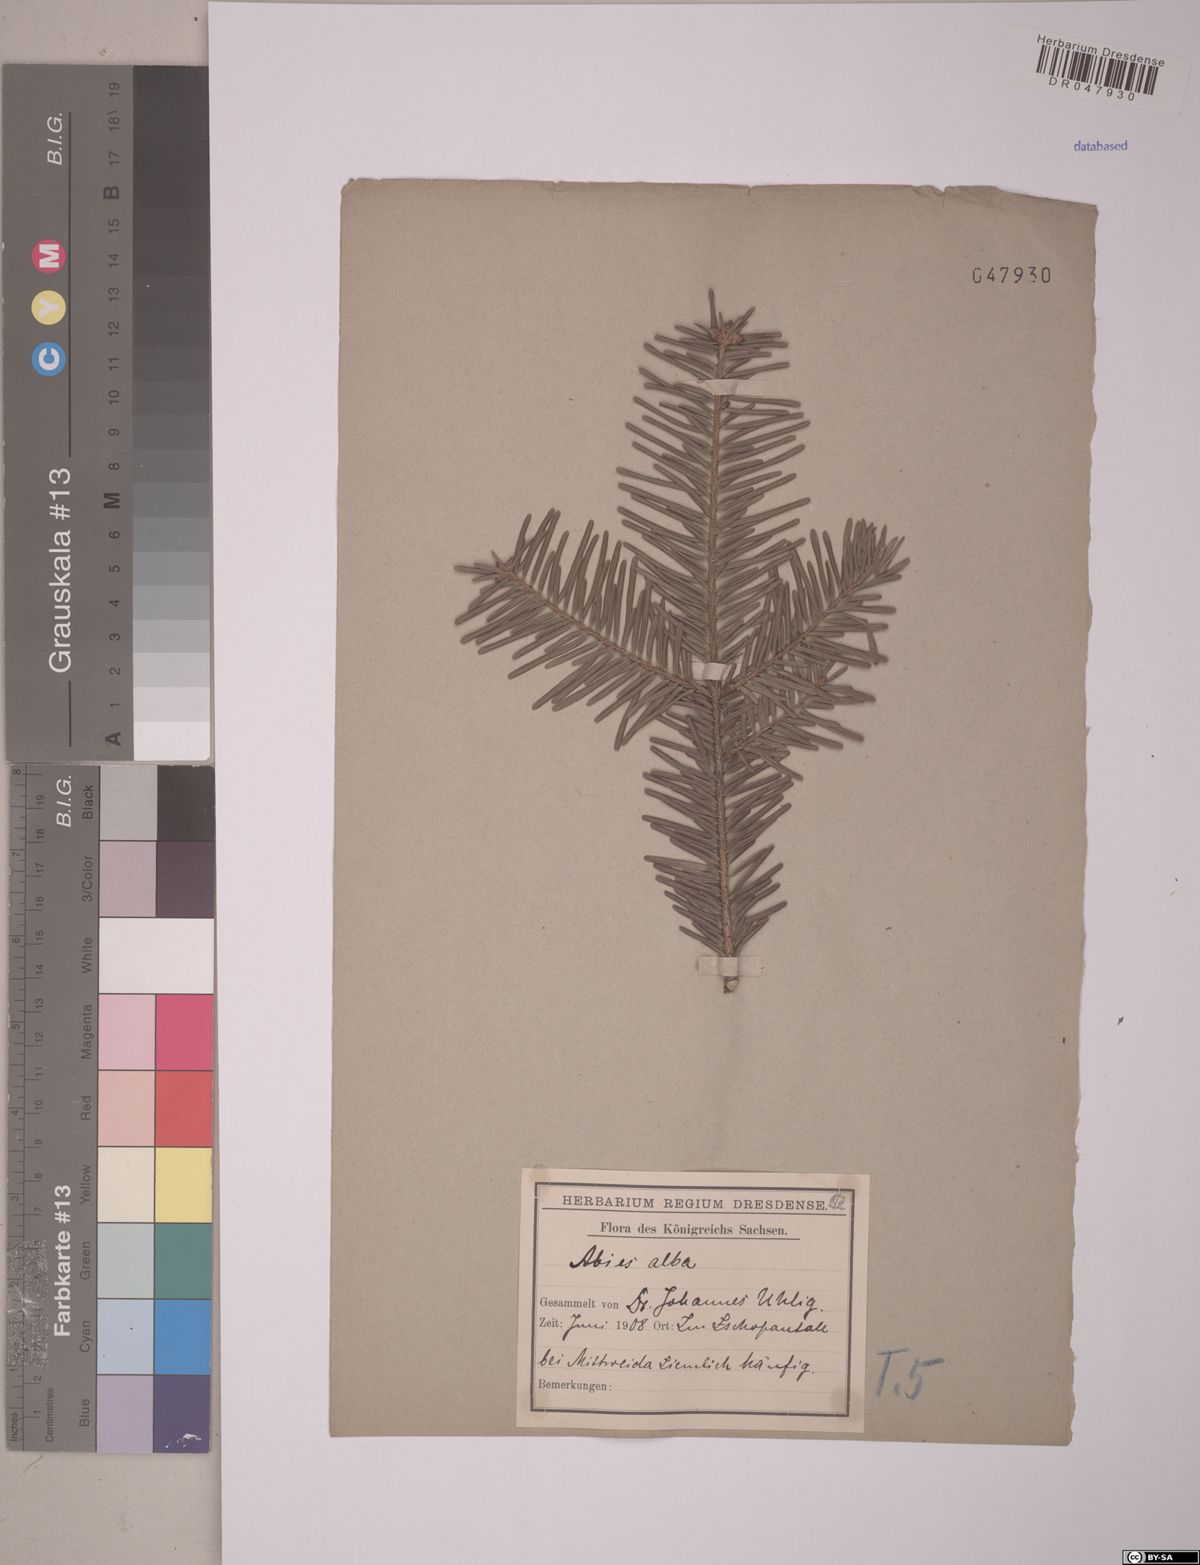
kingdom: Plantae
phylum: Tracheophyta
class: Pinopsida
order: Pinales
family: Pinaceae
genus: Abies
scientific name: Abies alba
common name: Silver fir
